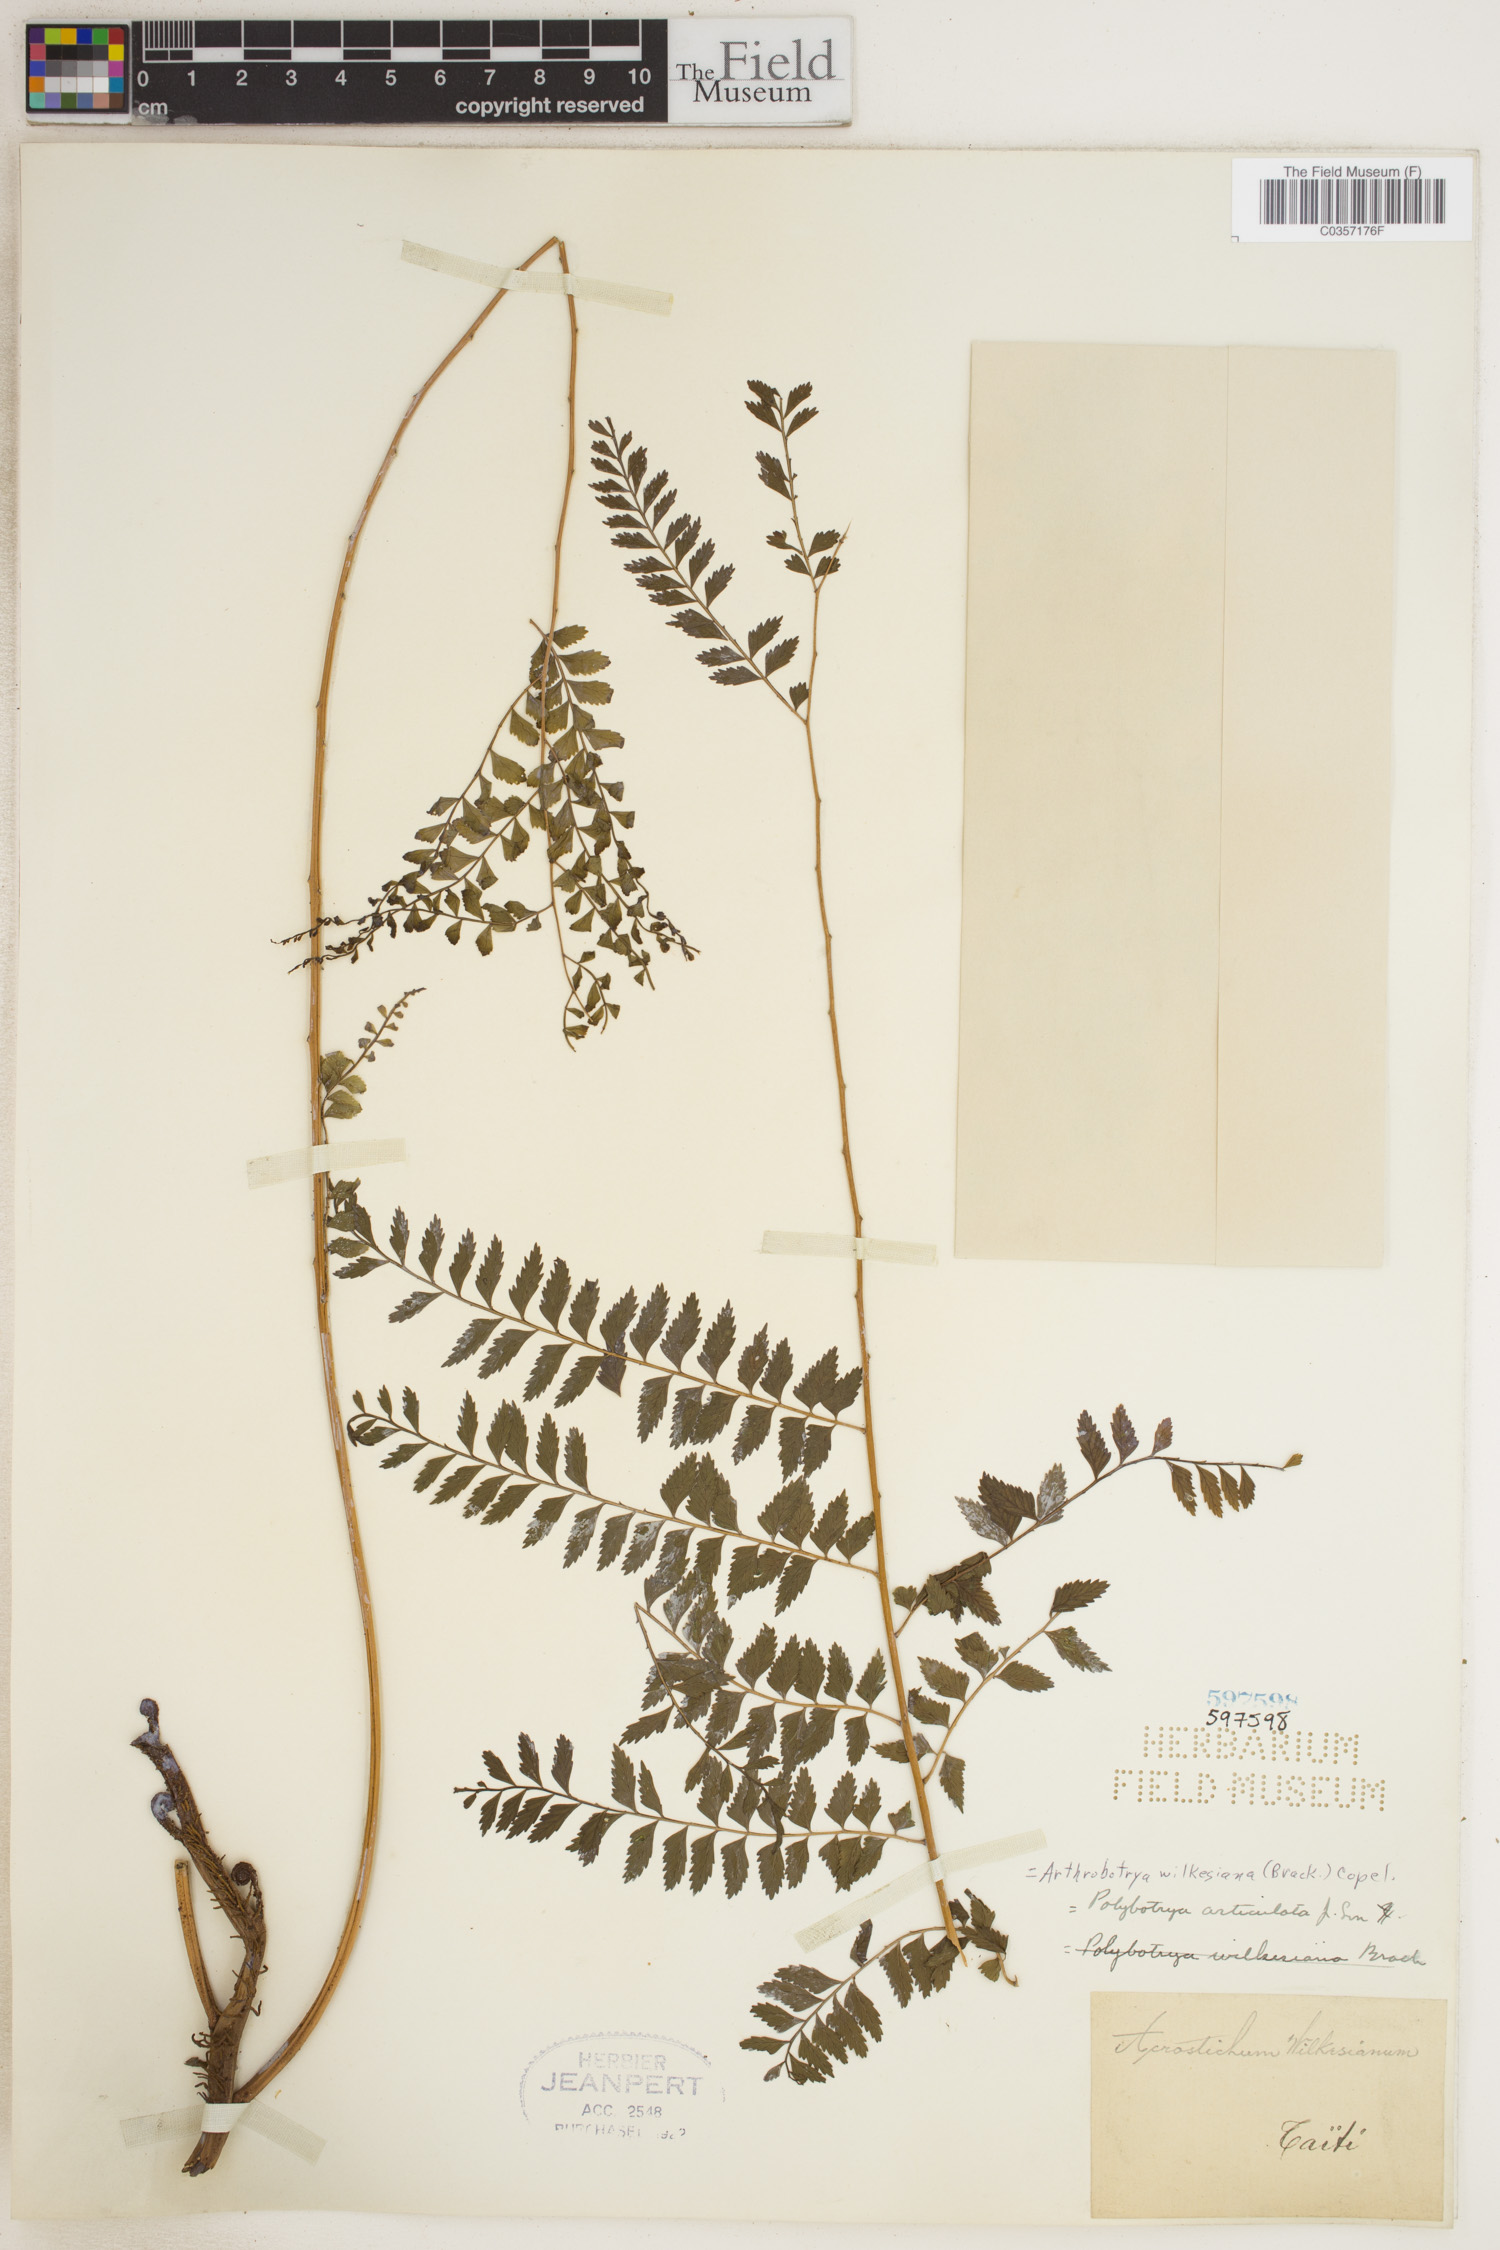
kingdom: Plantae
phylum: Tracheophyta
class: Polypodiopsida
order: Polypodiales
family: Dryopteridaceae
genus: Arthrobotrya
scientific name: Arthrobotrya wilkesiana
